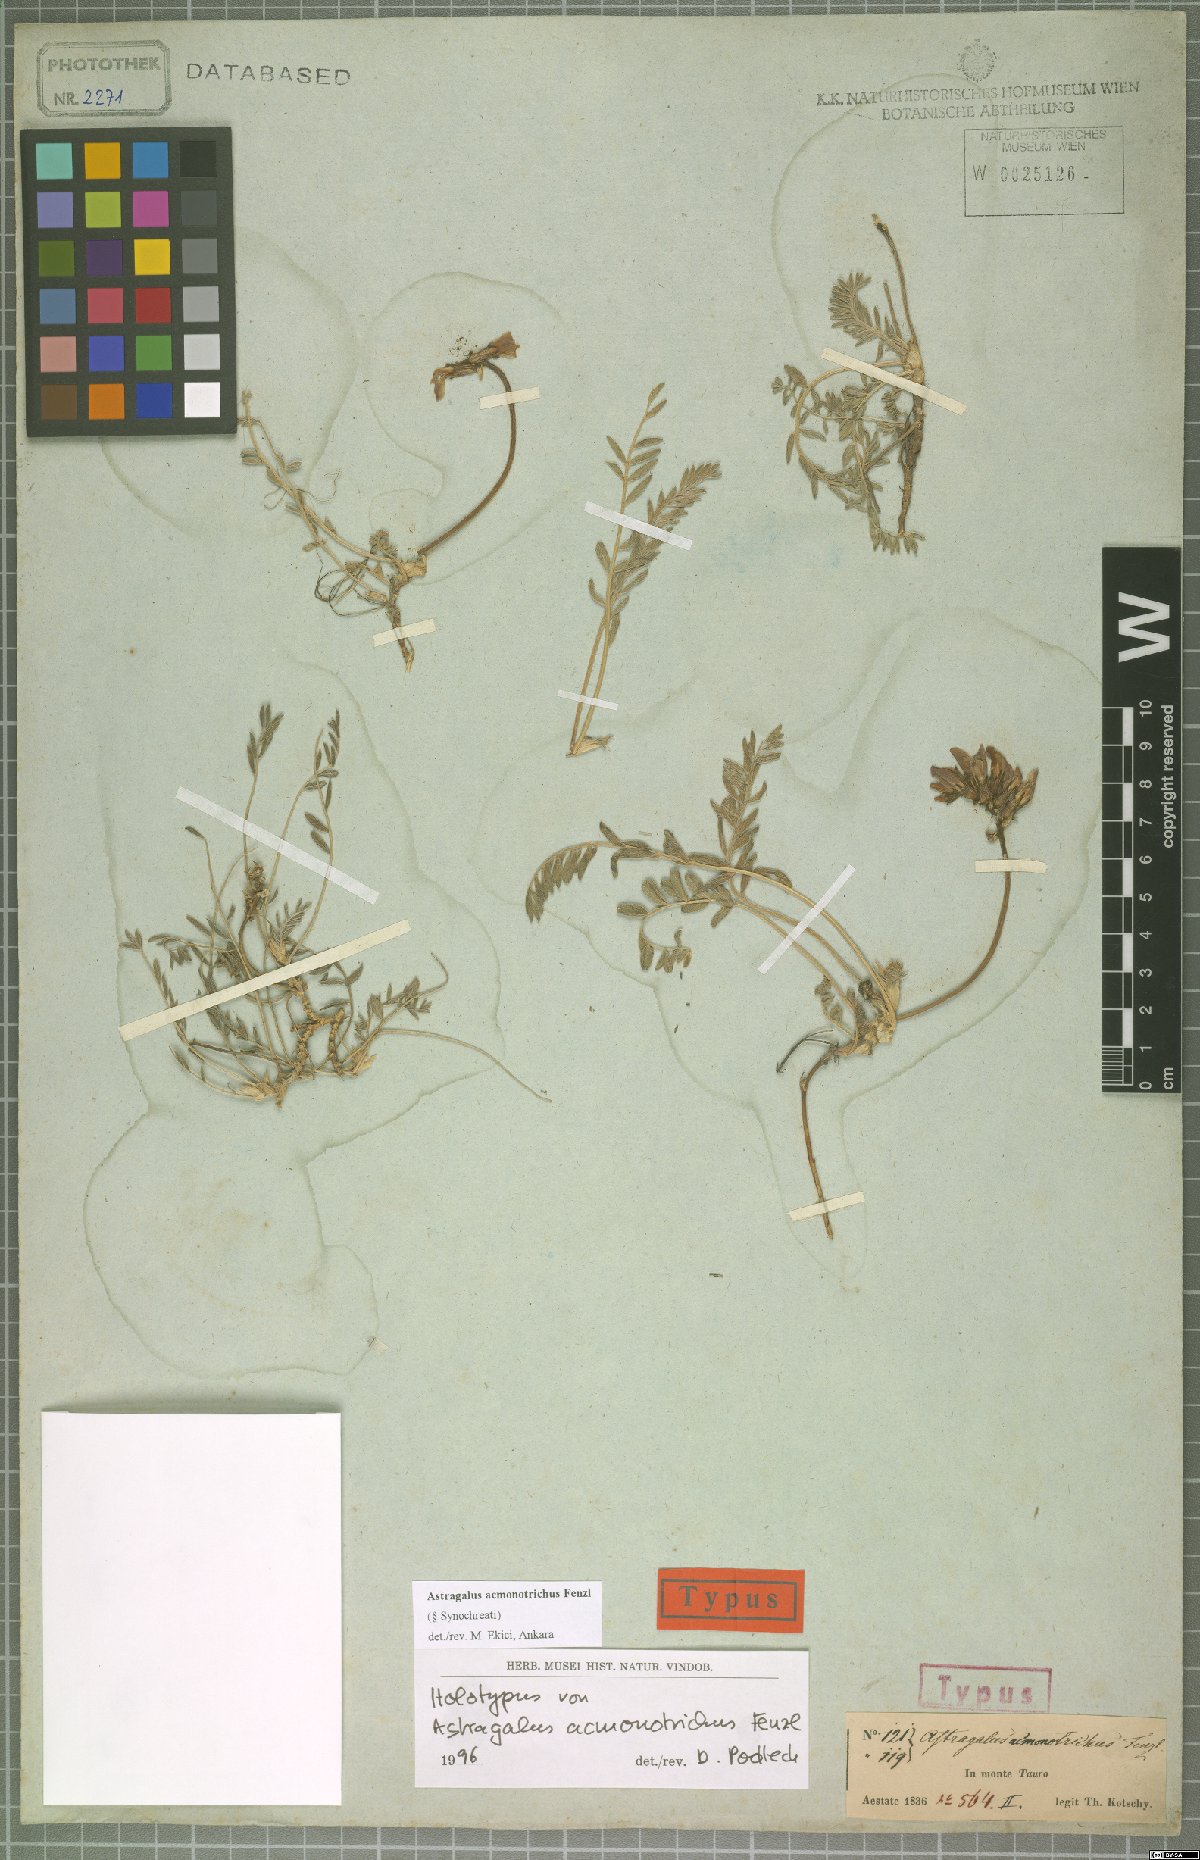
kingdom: Plantae
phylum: Tracheophyta
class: Magnoliopsida
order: Fabales
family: Fabaceae
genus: Astragalus
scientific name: Astragalus acmonotrichus
